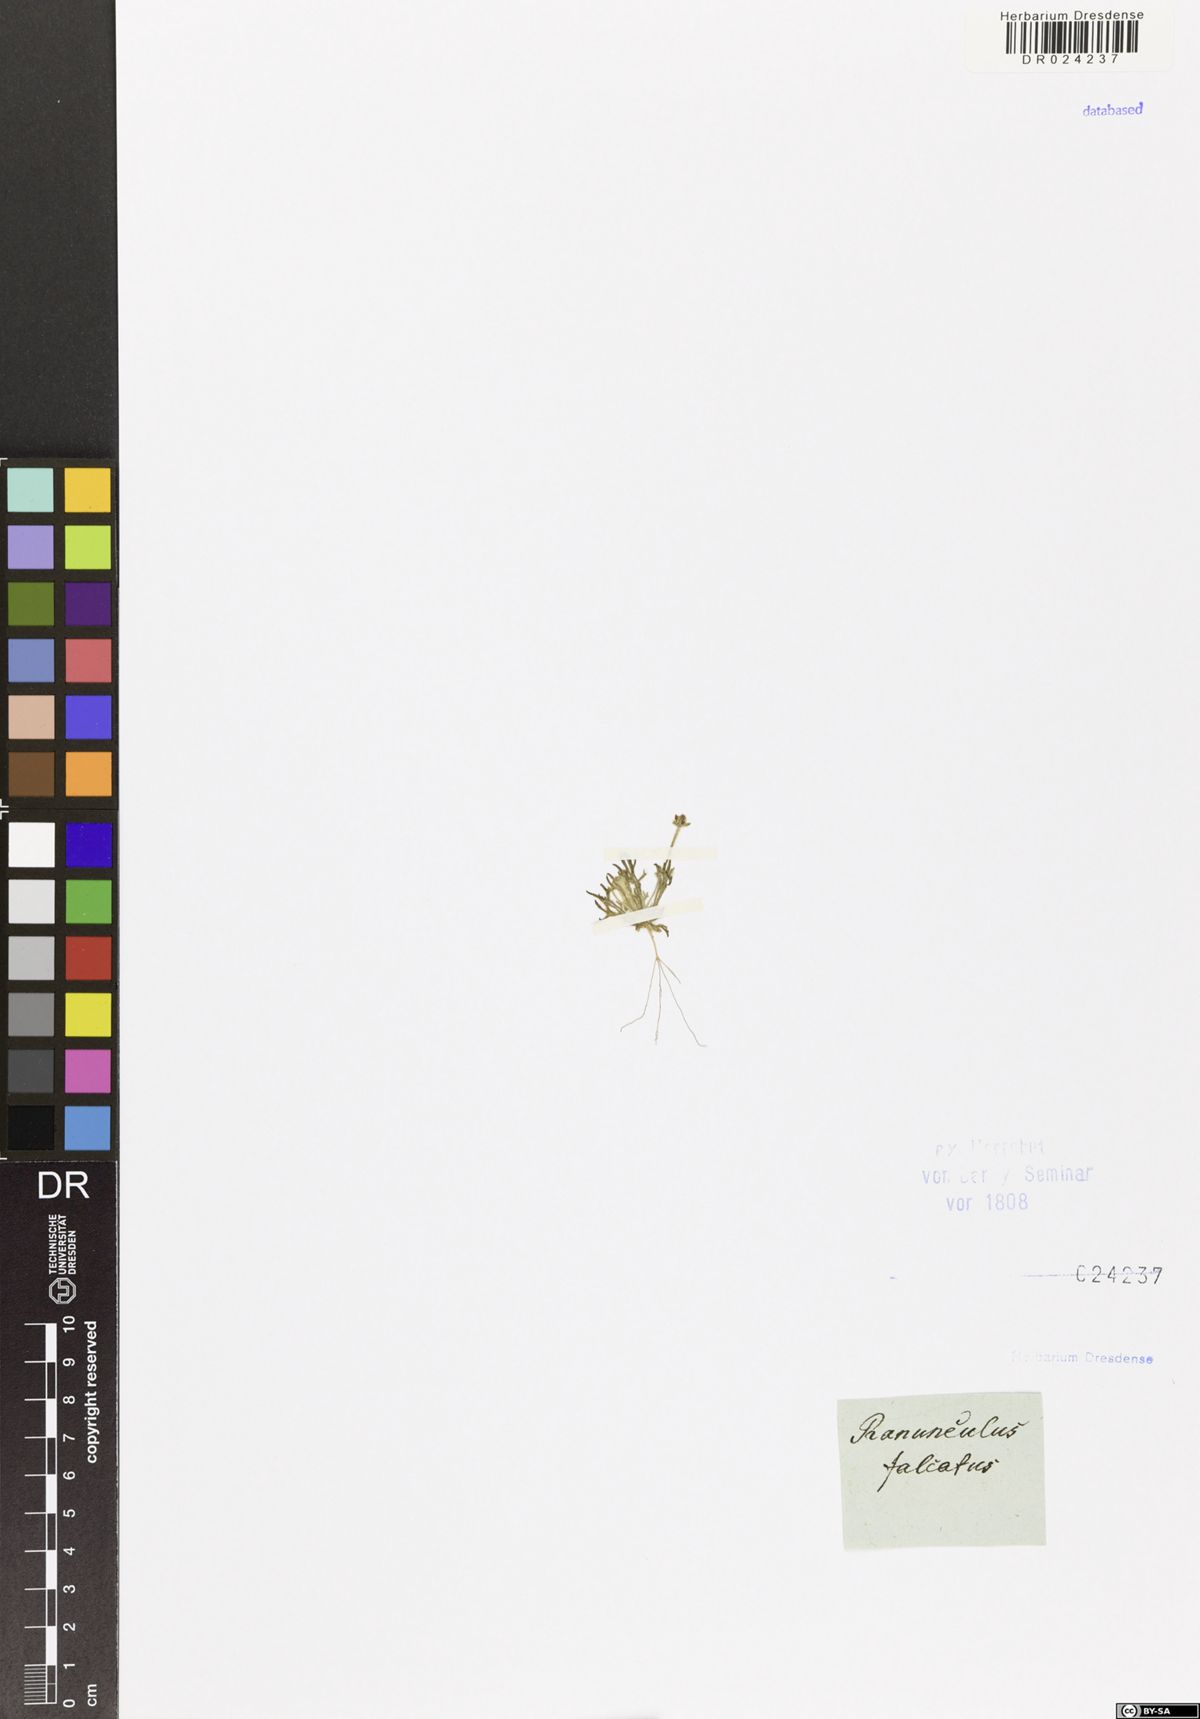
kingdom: Plantae
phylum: Tracheophyta
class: Magnoliopsida
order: Ranunculales
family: Ranunculaceae
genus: Ceratocephala
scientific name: Ceratocephala falcata
